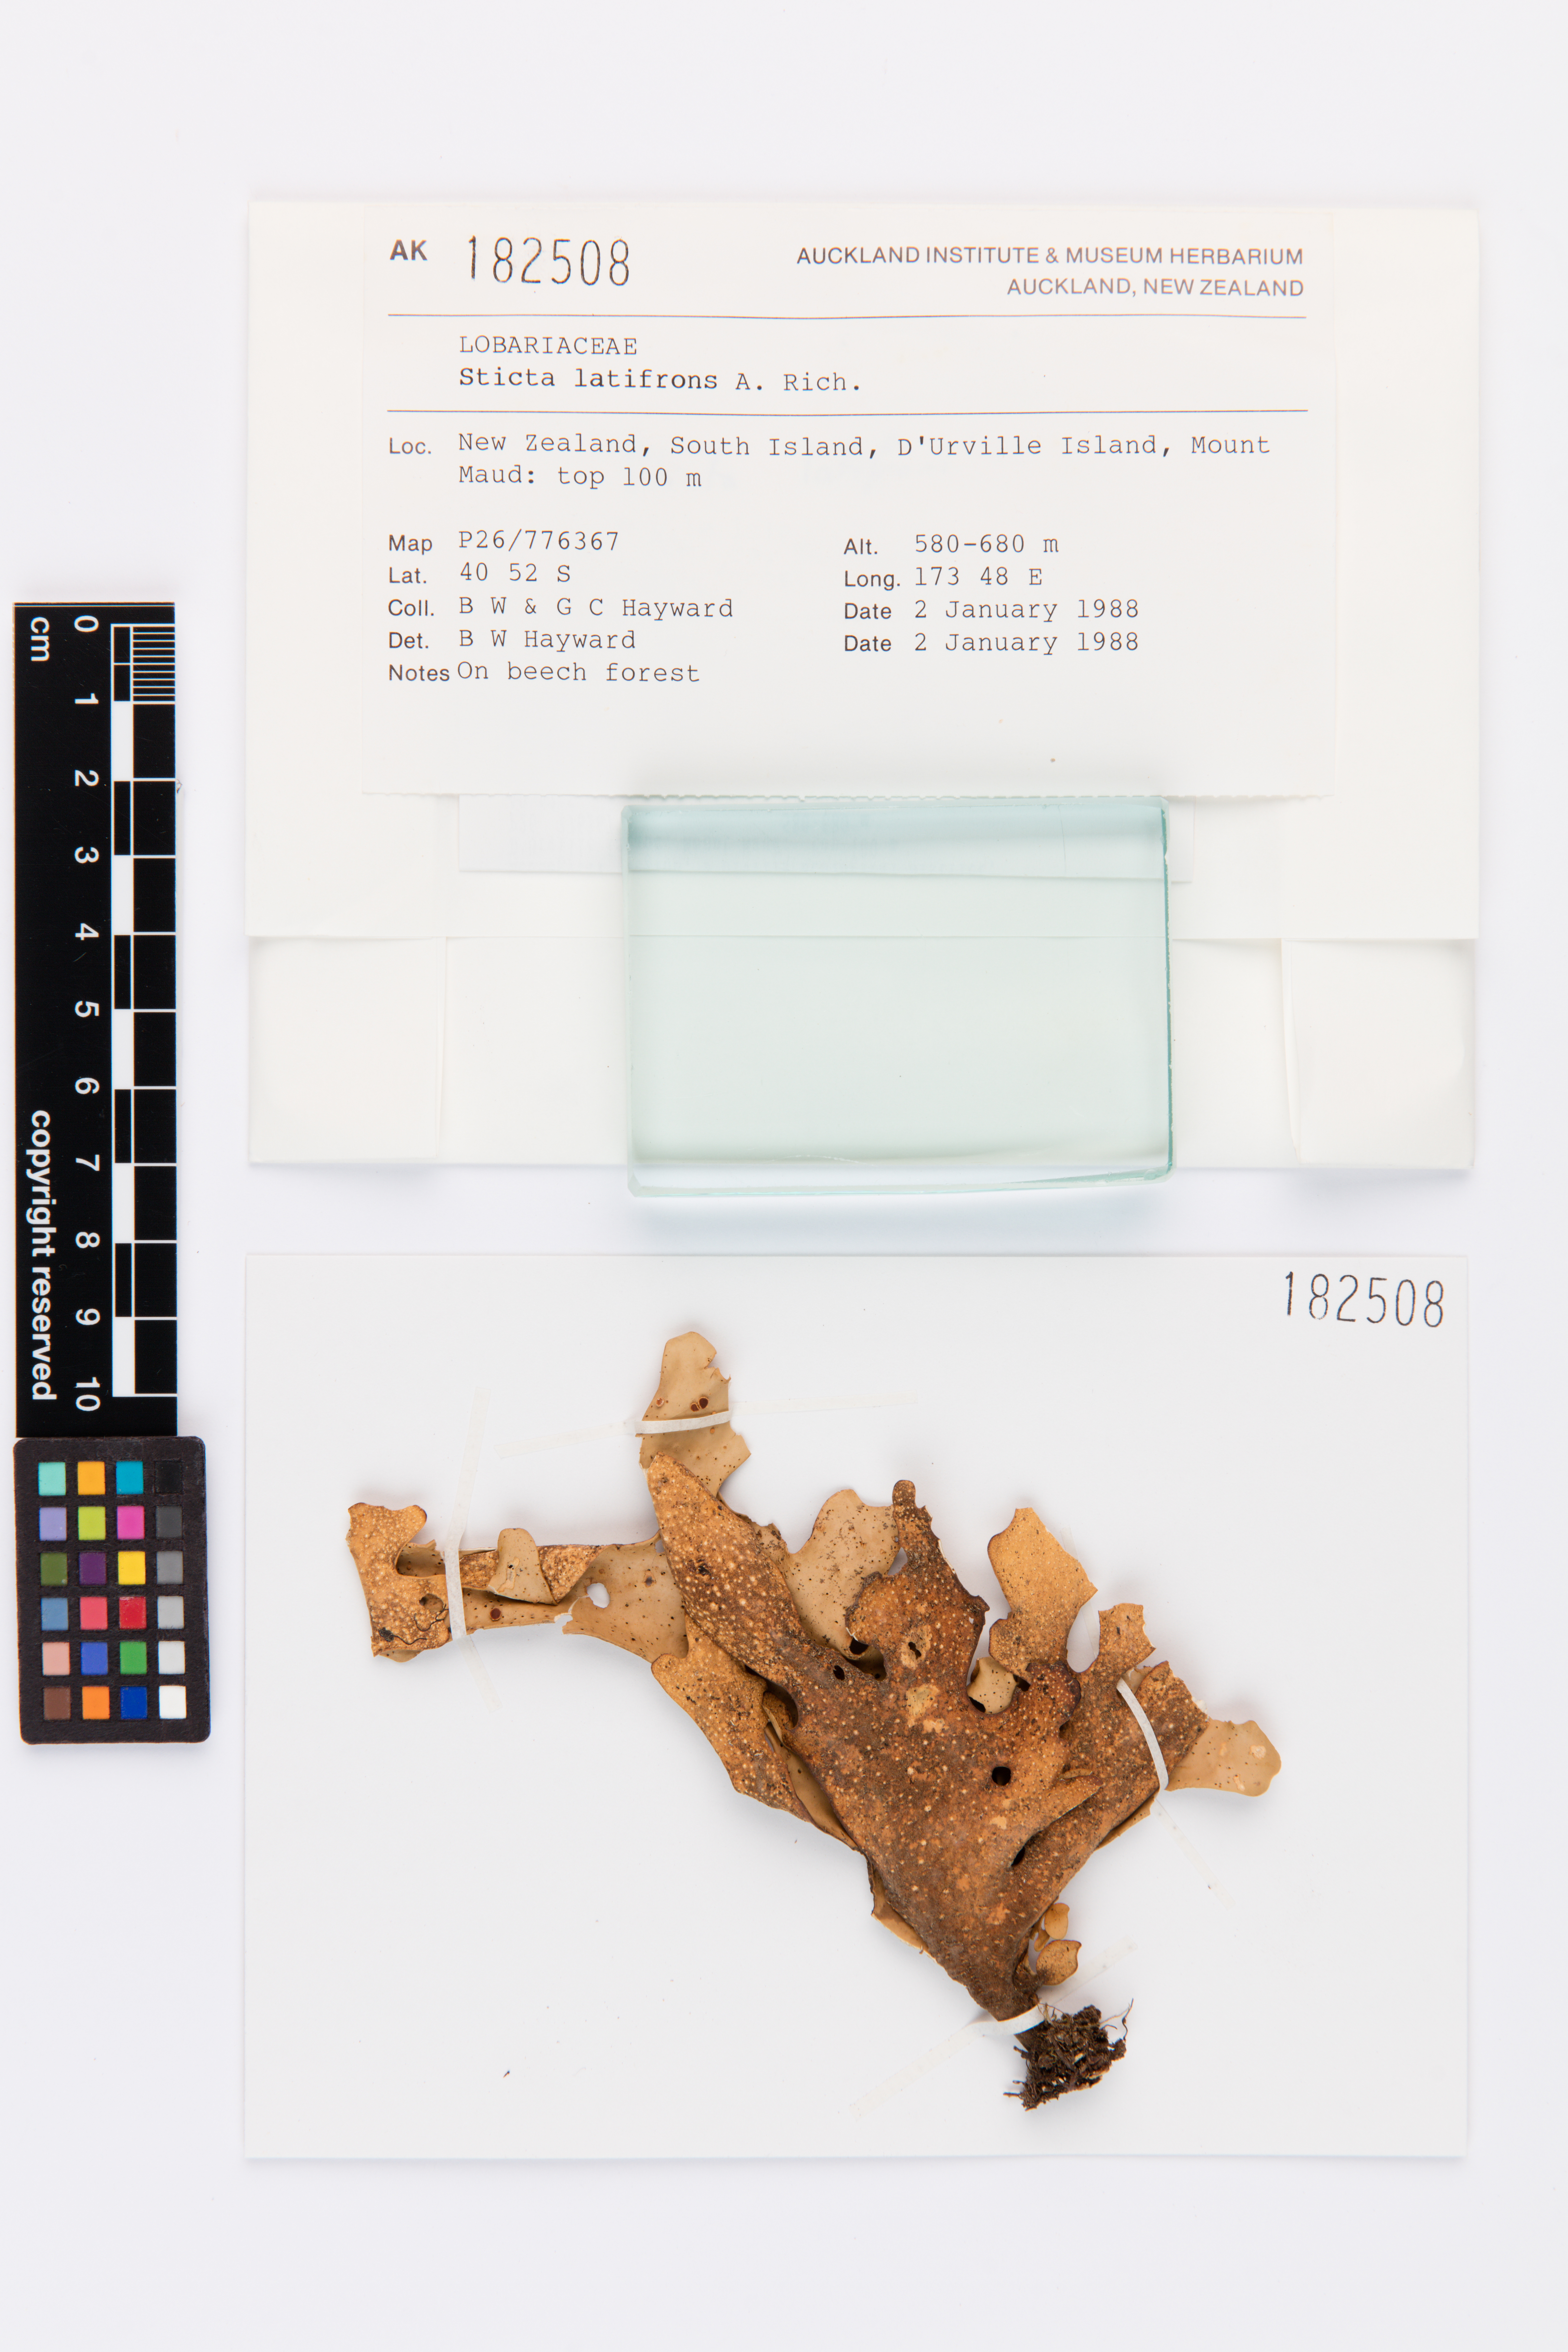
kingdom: Fungi
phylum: Ascomycota
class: Lecanoromycetes
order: Peltigerales
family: Lobariaceae
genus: Sticta
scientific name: Sticta latifrons
